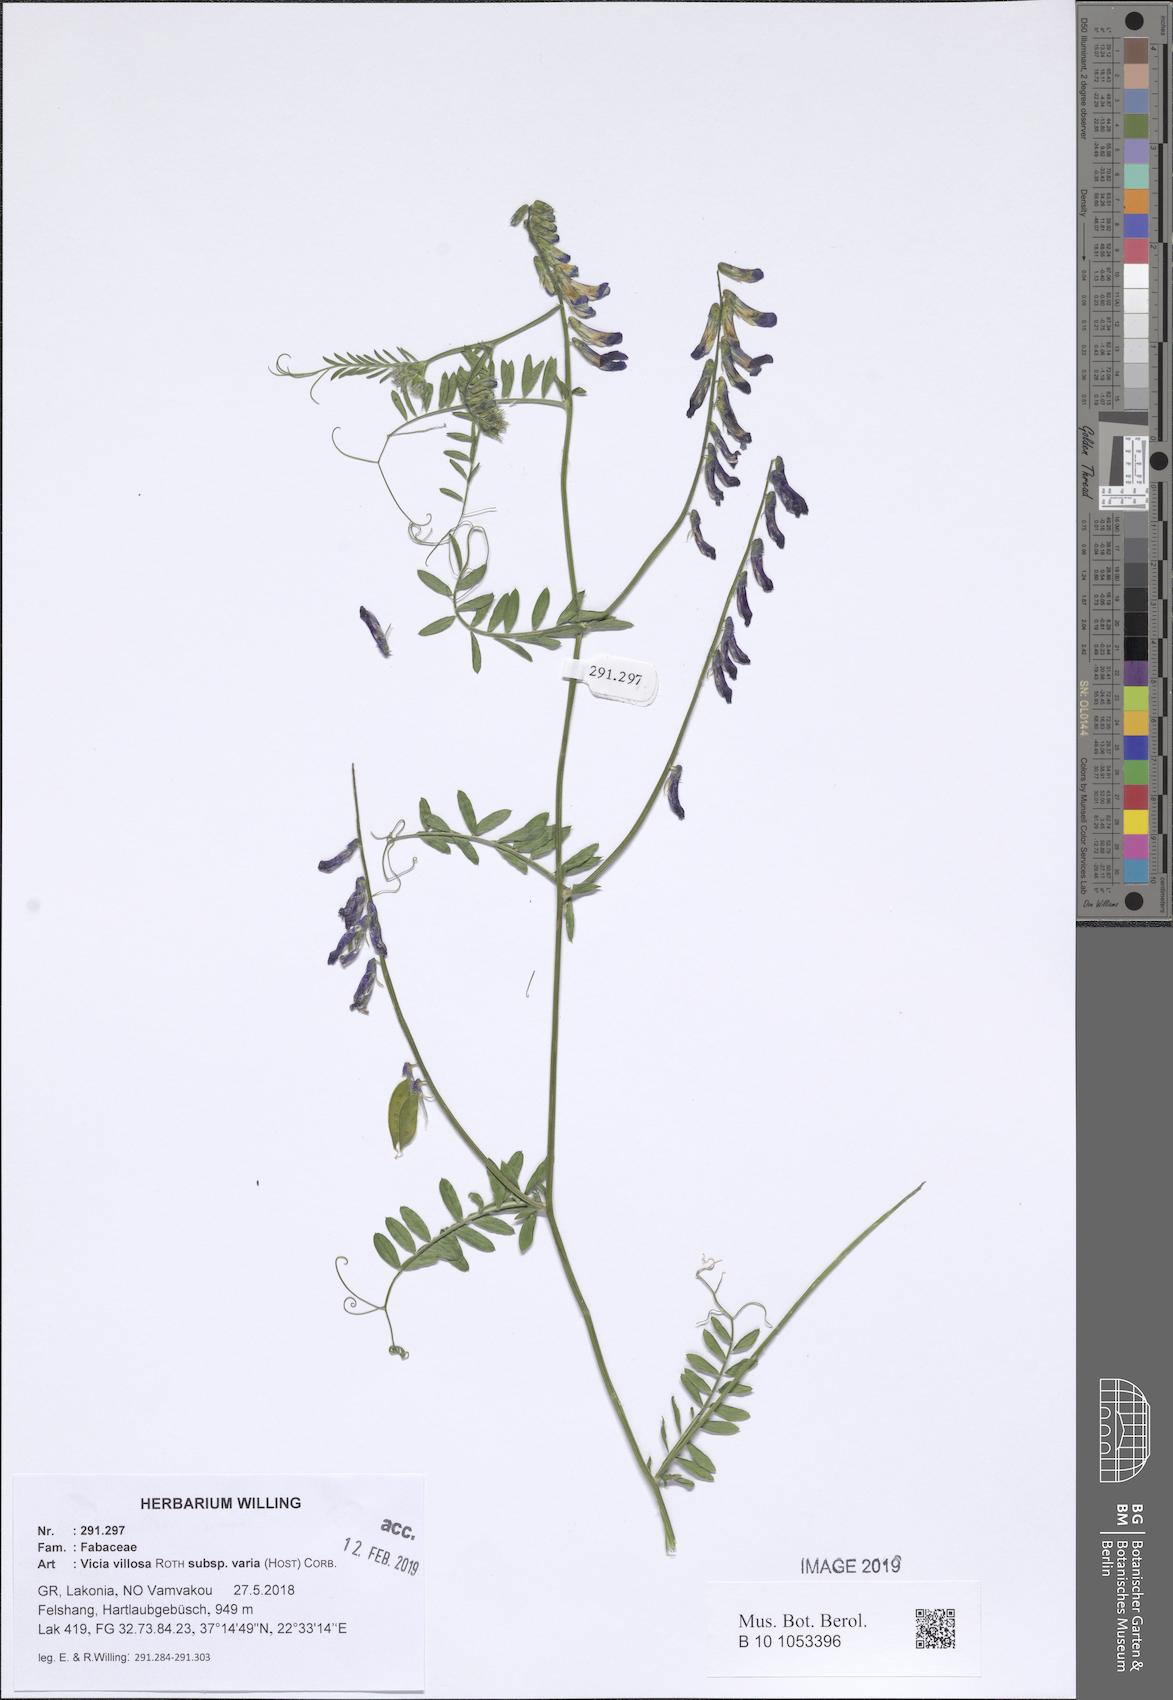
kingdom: Plantae
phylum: Tracheophyta
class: Magnoliopsida
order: Fabales
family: Fabaceae
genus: Vicia
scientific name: Vicia villosa
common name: Fodder vetch
